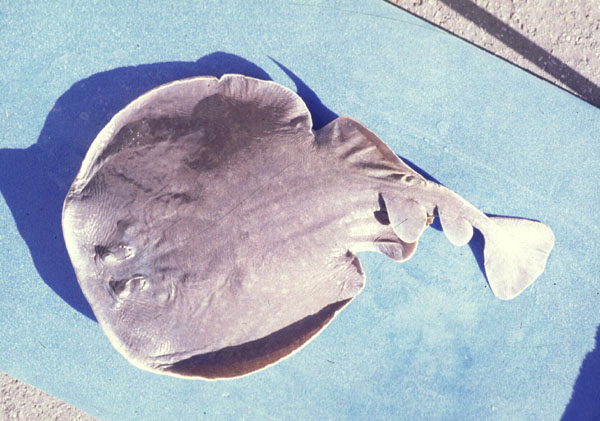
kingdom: Animalia
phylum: Chordata
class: Elasmobranchii
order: Torpediniformes
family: Torpedinidae
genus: Torpedo
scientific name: Torpedo fuscomaculata
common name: Blackspotted electric ray
